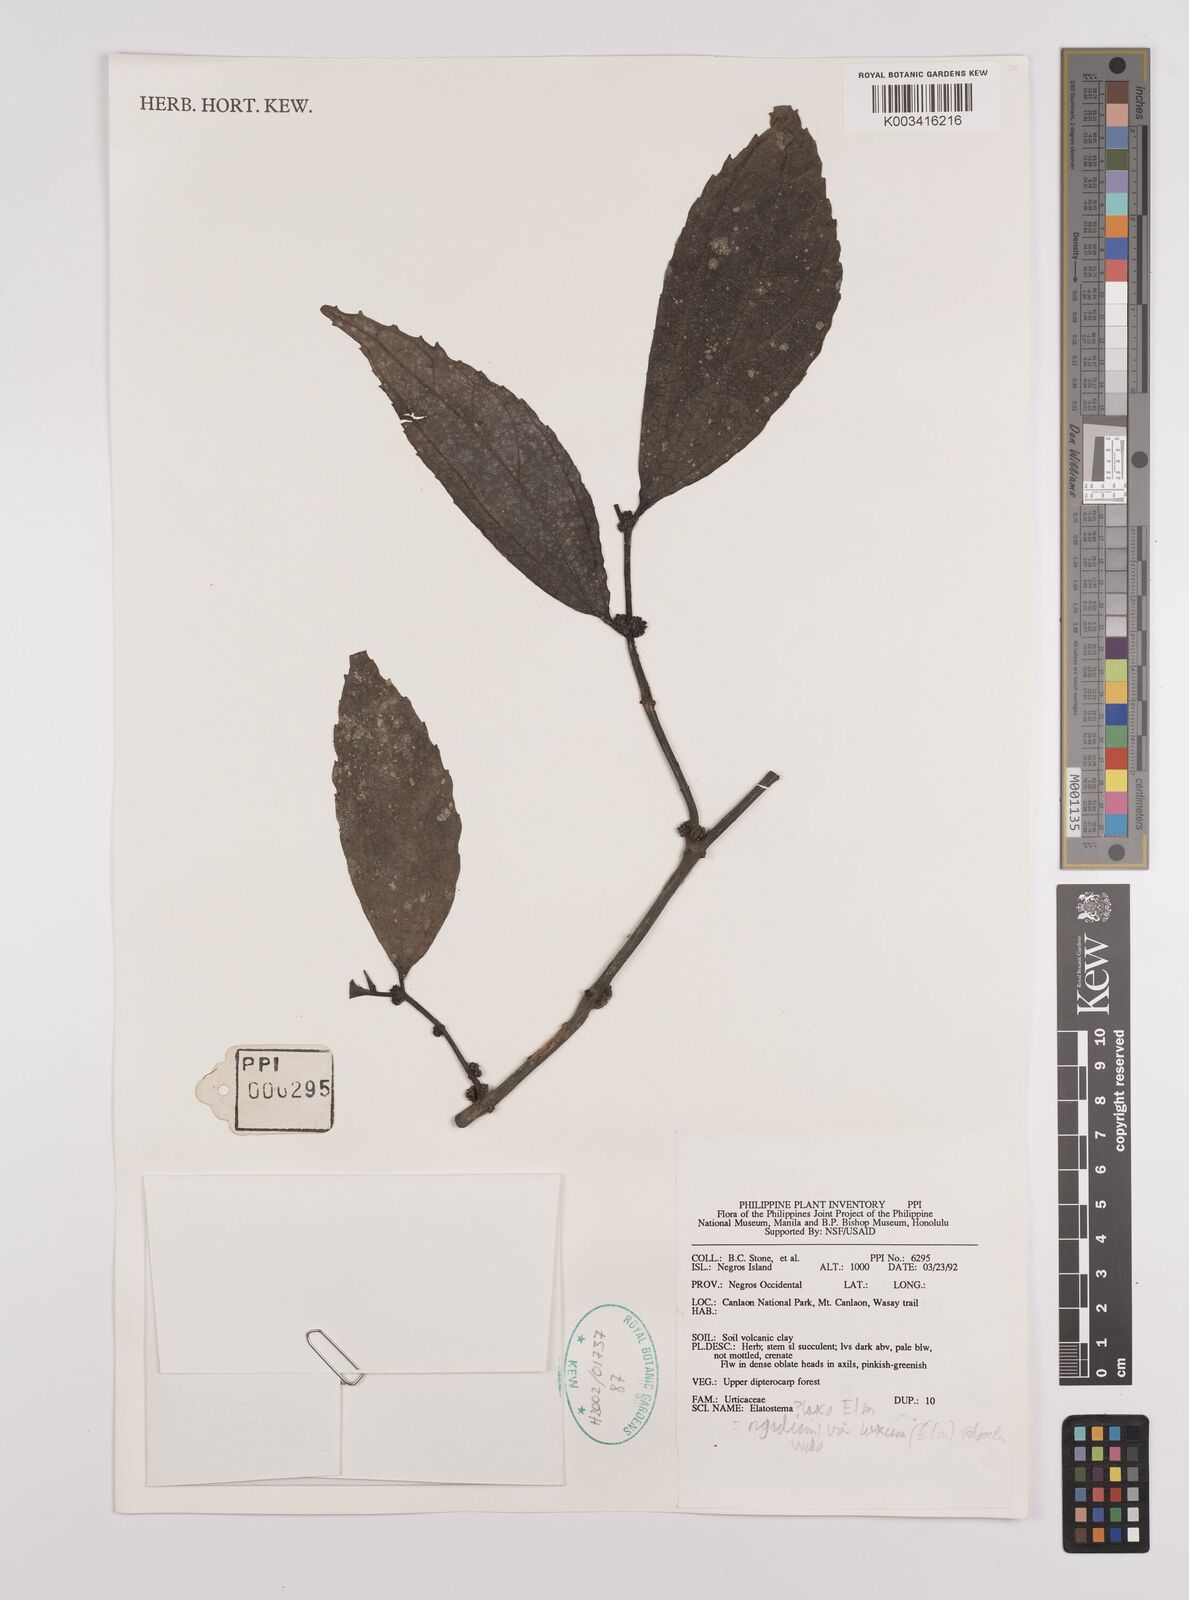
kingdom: Plantae
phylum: Tracheophyta
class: Magnoliopsida
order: Rosales
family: Urticaceae
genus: Elatostema
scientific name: Elatostema
